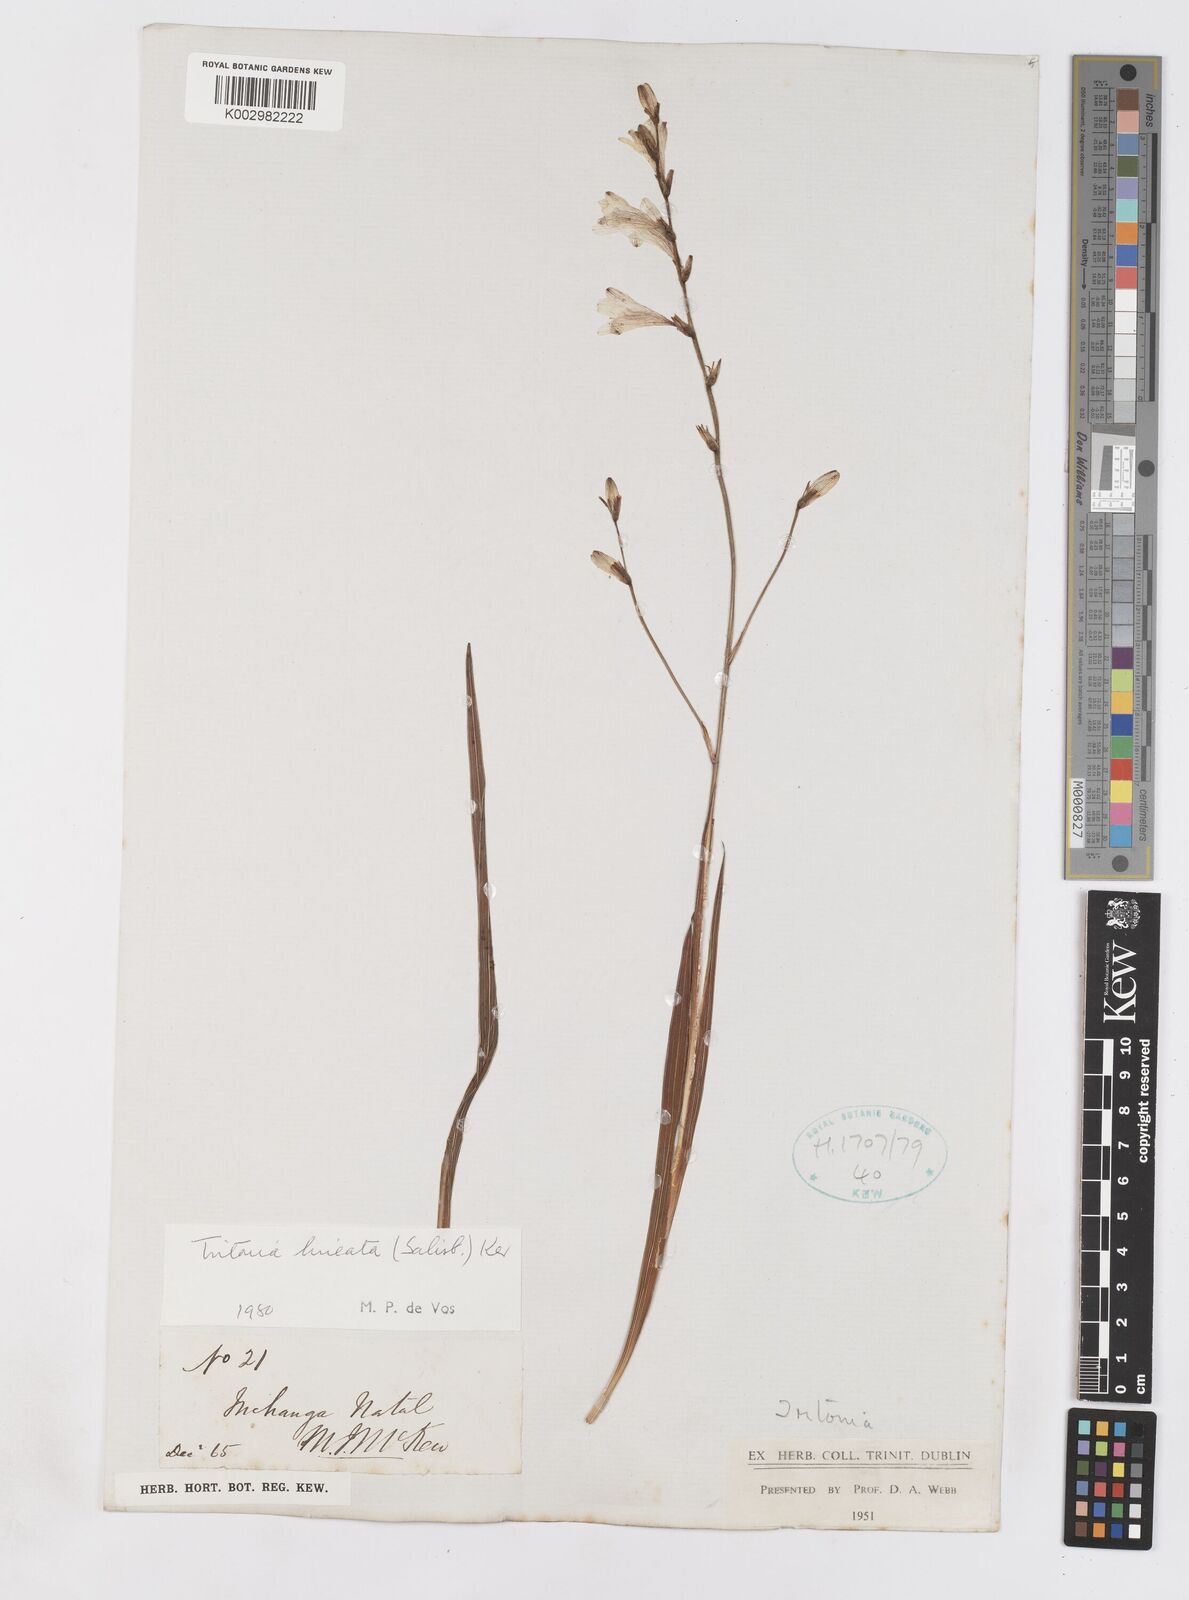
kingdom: Plantae
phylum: Tracheophyta
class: Liliopsida
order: Asparagales
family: Iridaceae
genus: Tritonia
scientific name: Tritonia gladiolaris
